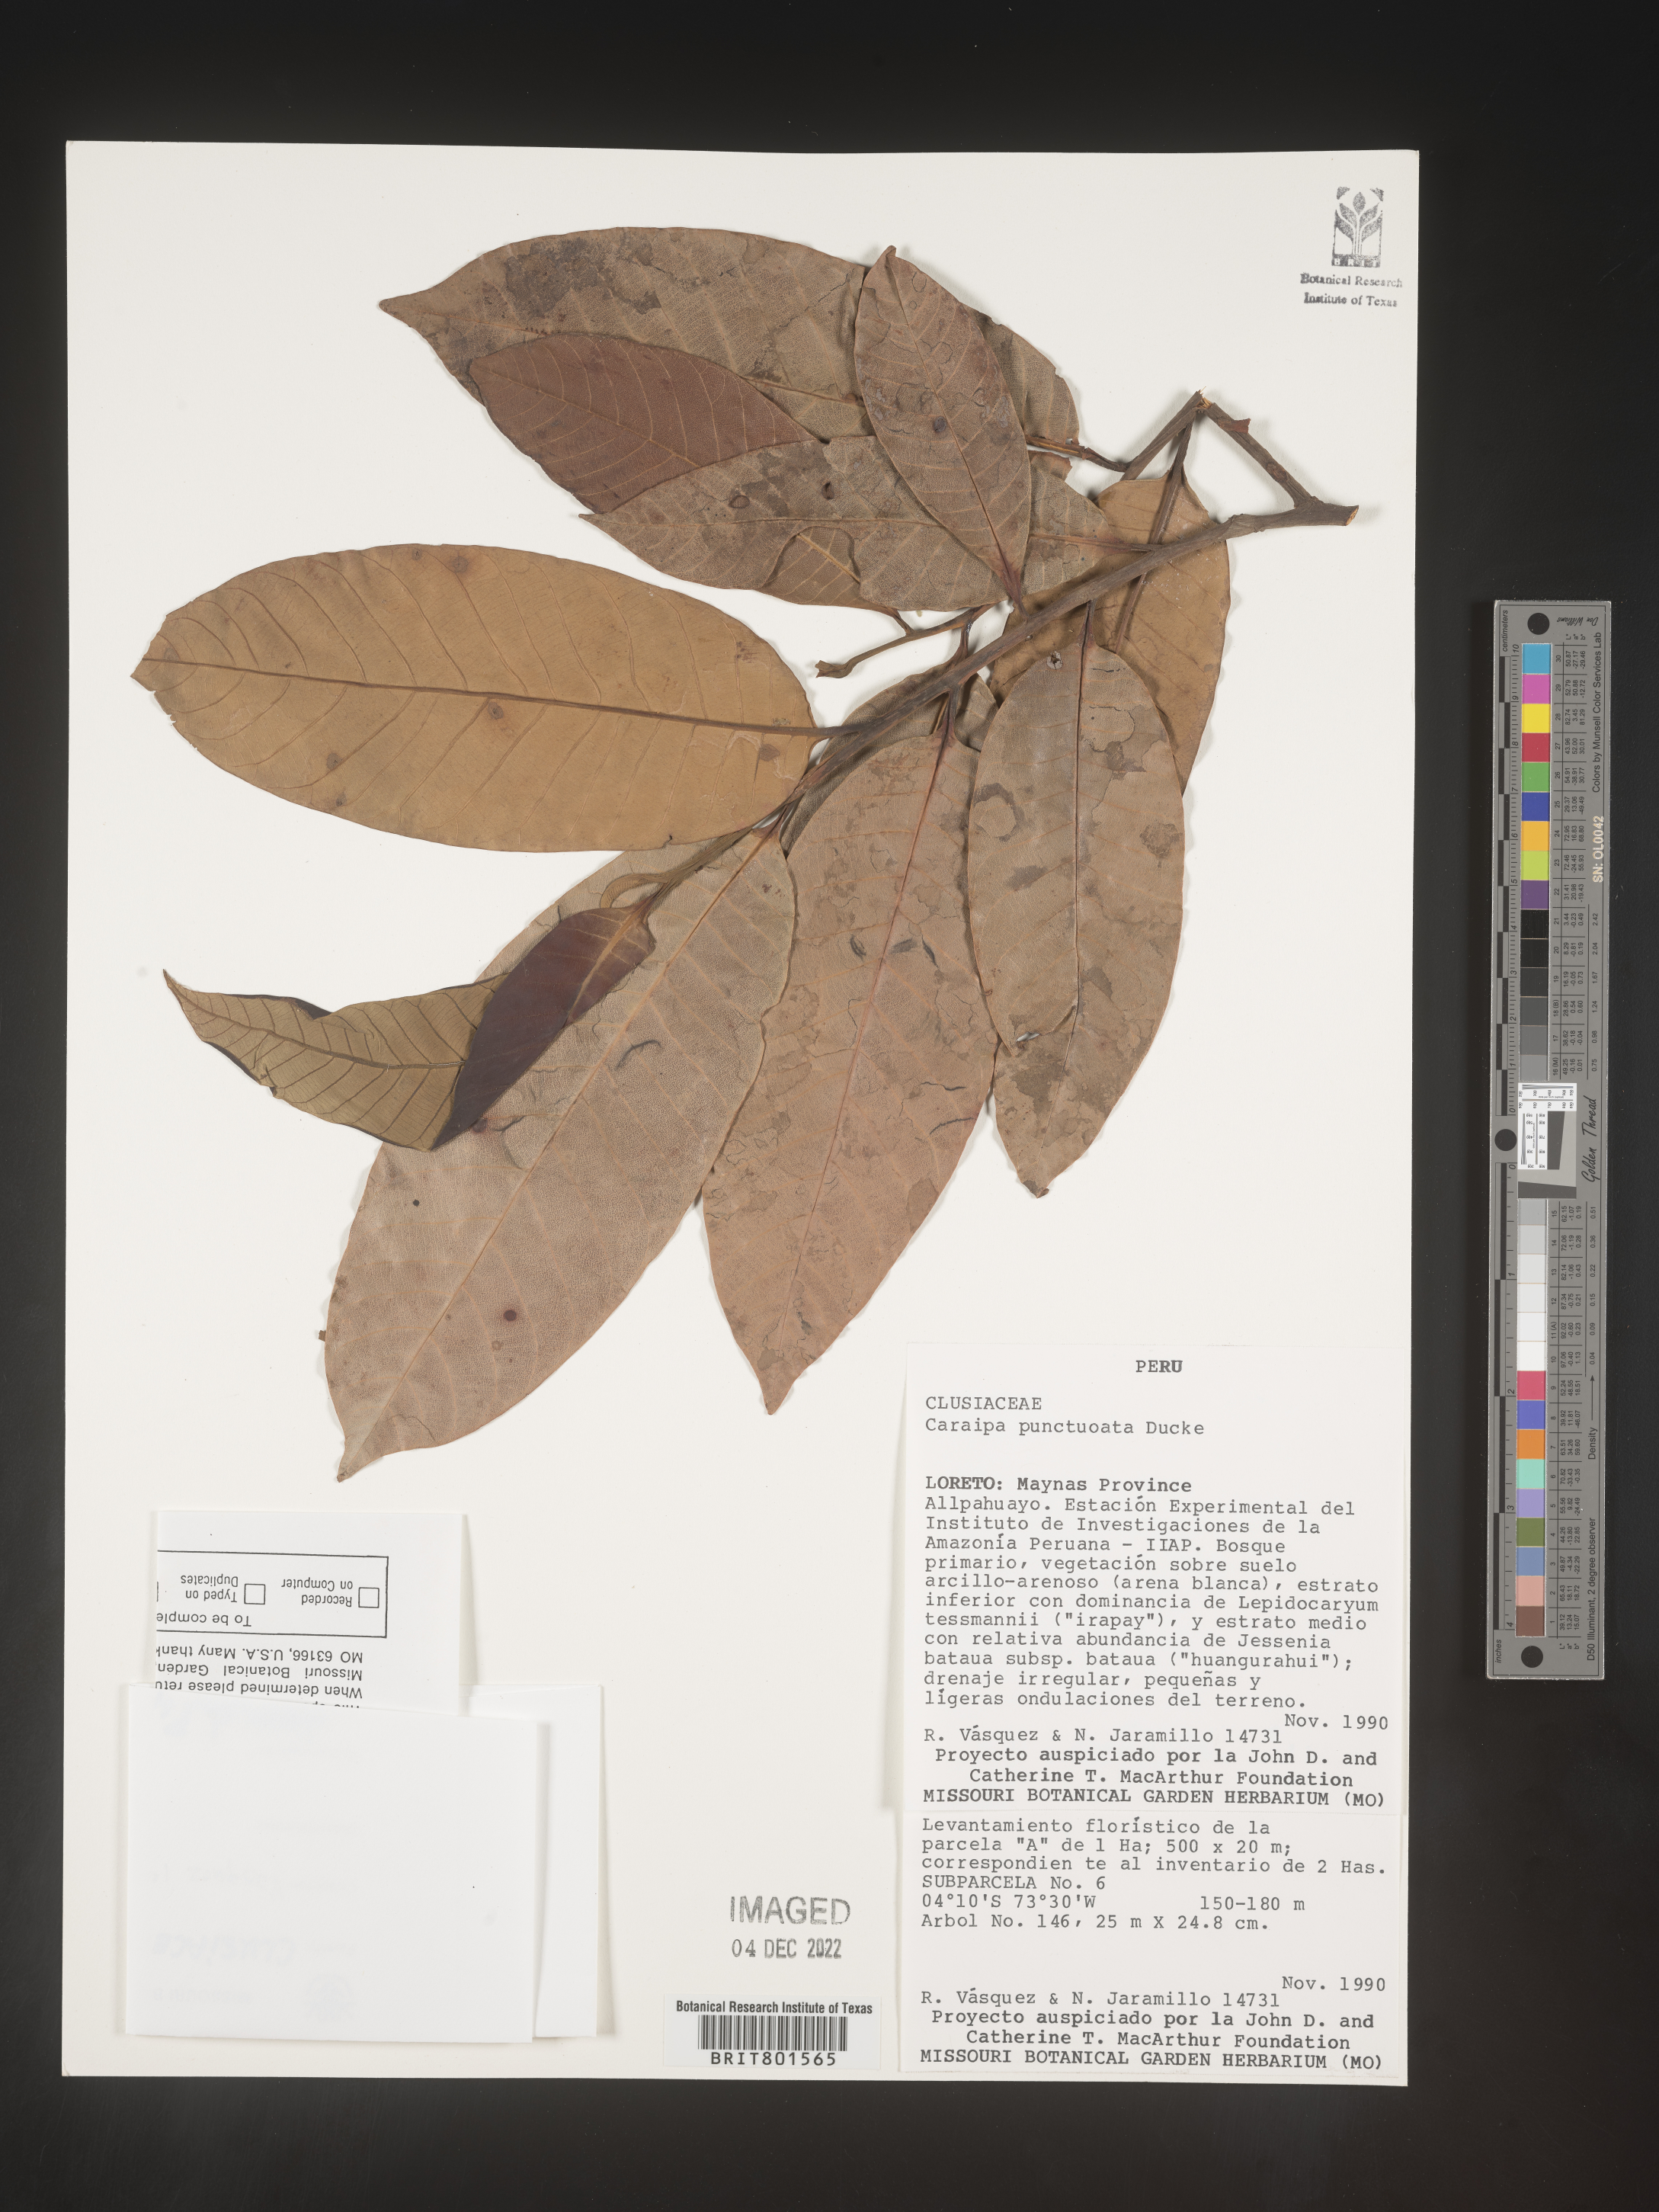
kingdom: Plantae
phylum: Tracheophyta
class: Magnoliopsida
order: Malpighiales
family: Calophyllaceae
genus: Caraipa
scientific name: Caraipa
